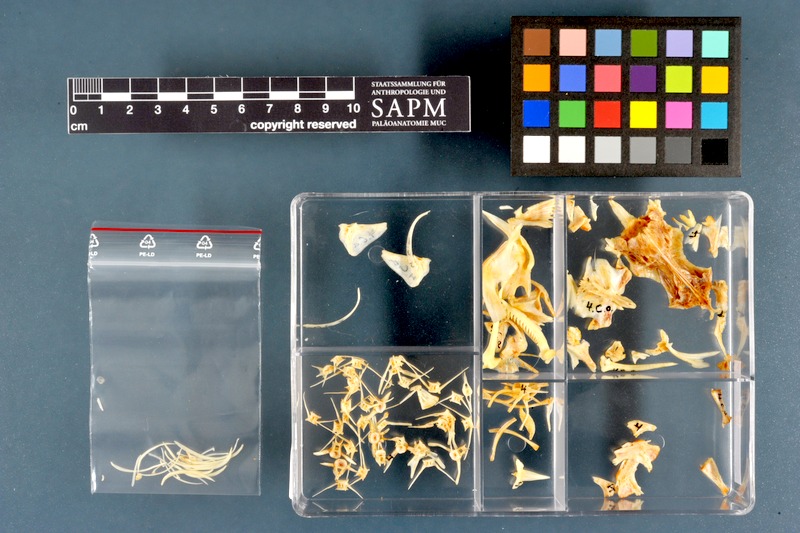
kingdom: Animalia
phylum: Chordata
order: Siluriformes
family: Claroteidae
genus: Chrysichthys
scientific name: Chrysichthys auratus
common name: Golden nile catfish
